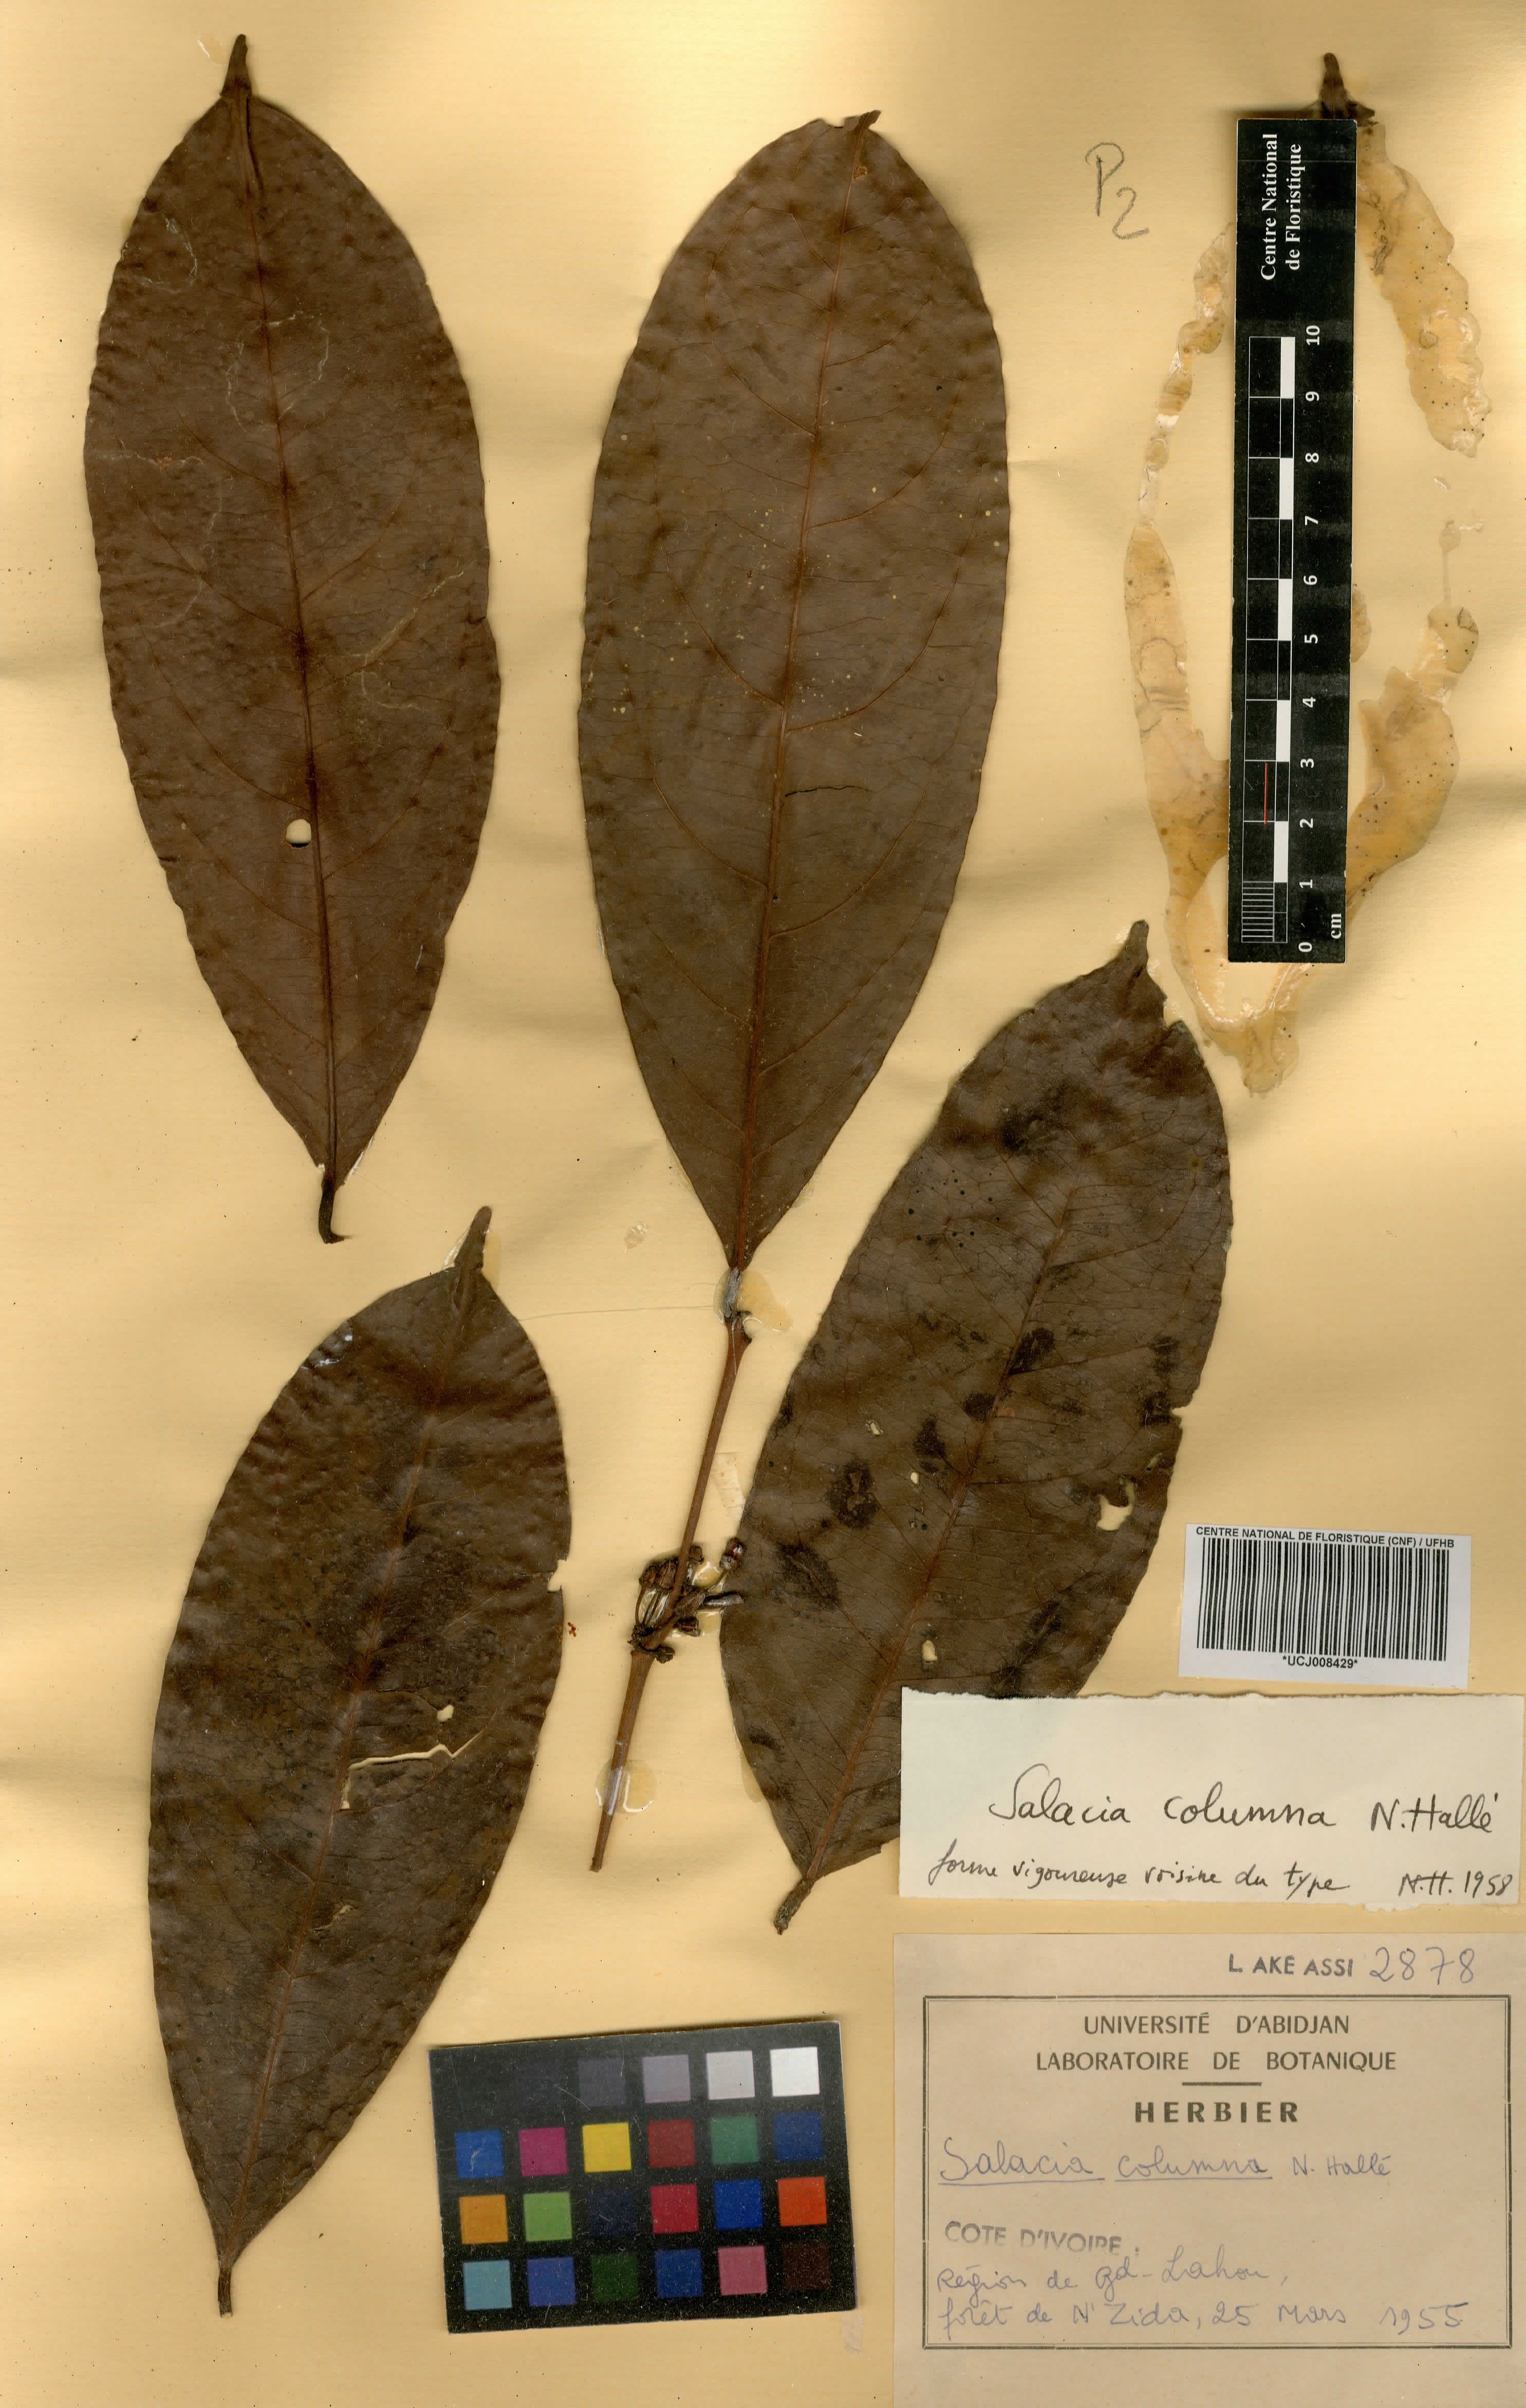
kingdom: Plantae
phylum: Tracheophyta
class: Magnoliopsida
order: Celastrales
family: Celastraceae
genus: Salacia
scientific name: Salacia columna
